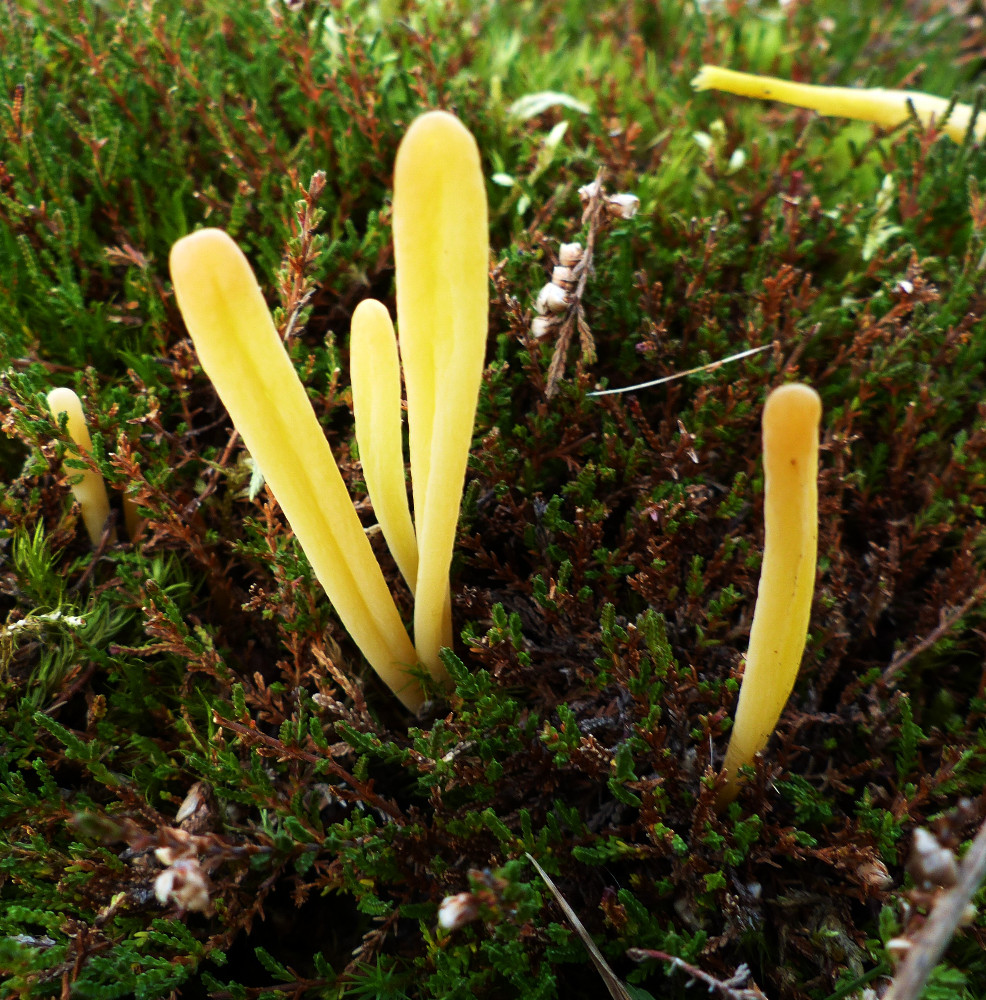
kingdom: Fungi
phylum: Basidiomycota
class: Agaricomycetes
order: Agaricales
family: Clavariaceae
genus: Clavaria
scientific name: Clavaria argillacea
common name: lerfarvet køllesvamp
